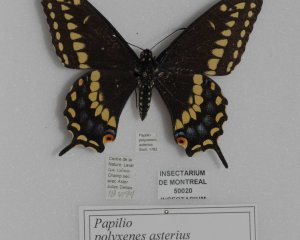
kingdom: Animalia
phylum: Arthropoda
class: Insecta
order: Lepidoptera
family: Papilionidae
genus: Papilio
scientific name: Papilio polyxenes
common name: Black Swallowtail
